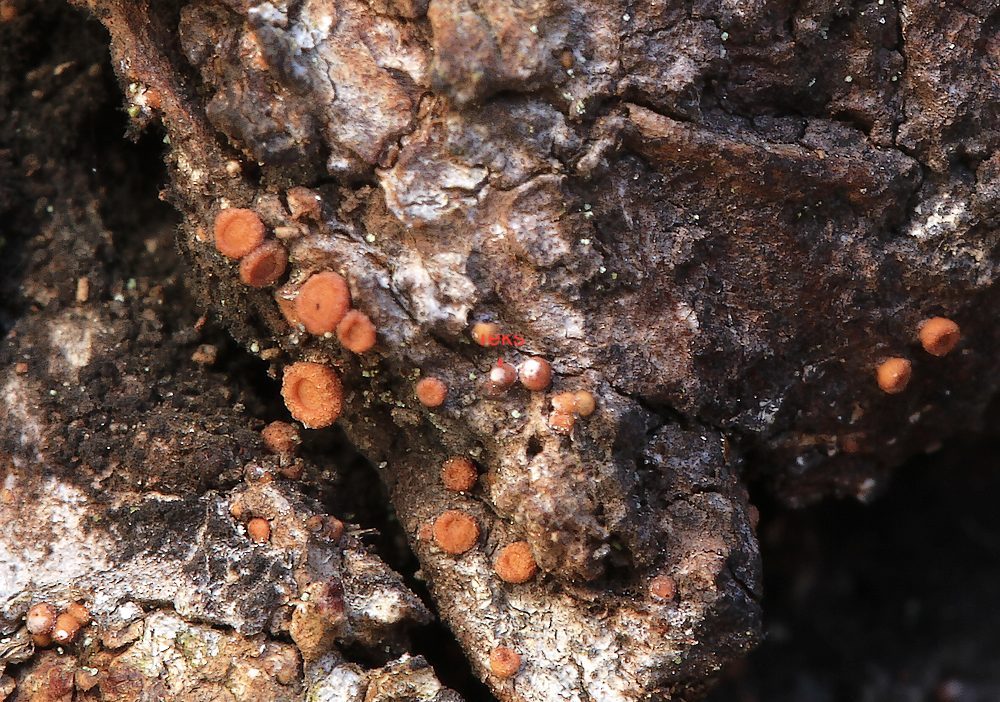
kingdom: Fungi
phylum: Ascomycota
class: Sareomycetes
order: Sareales
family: Sareaceae
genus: Sarea
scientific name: Sarea resinae
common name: orangegul harpiksskive
